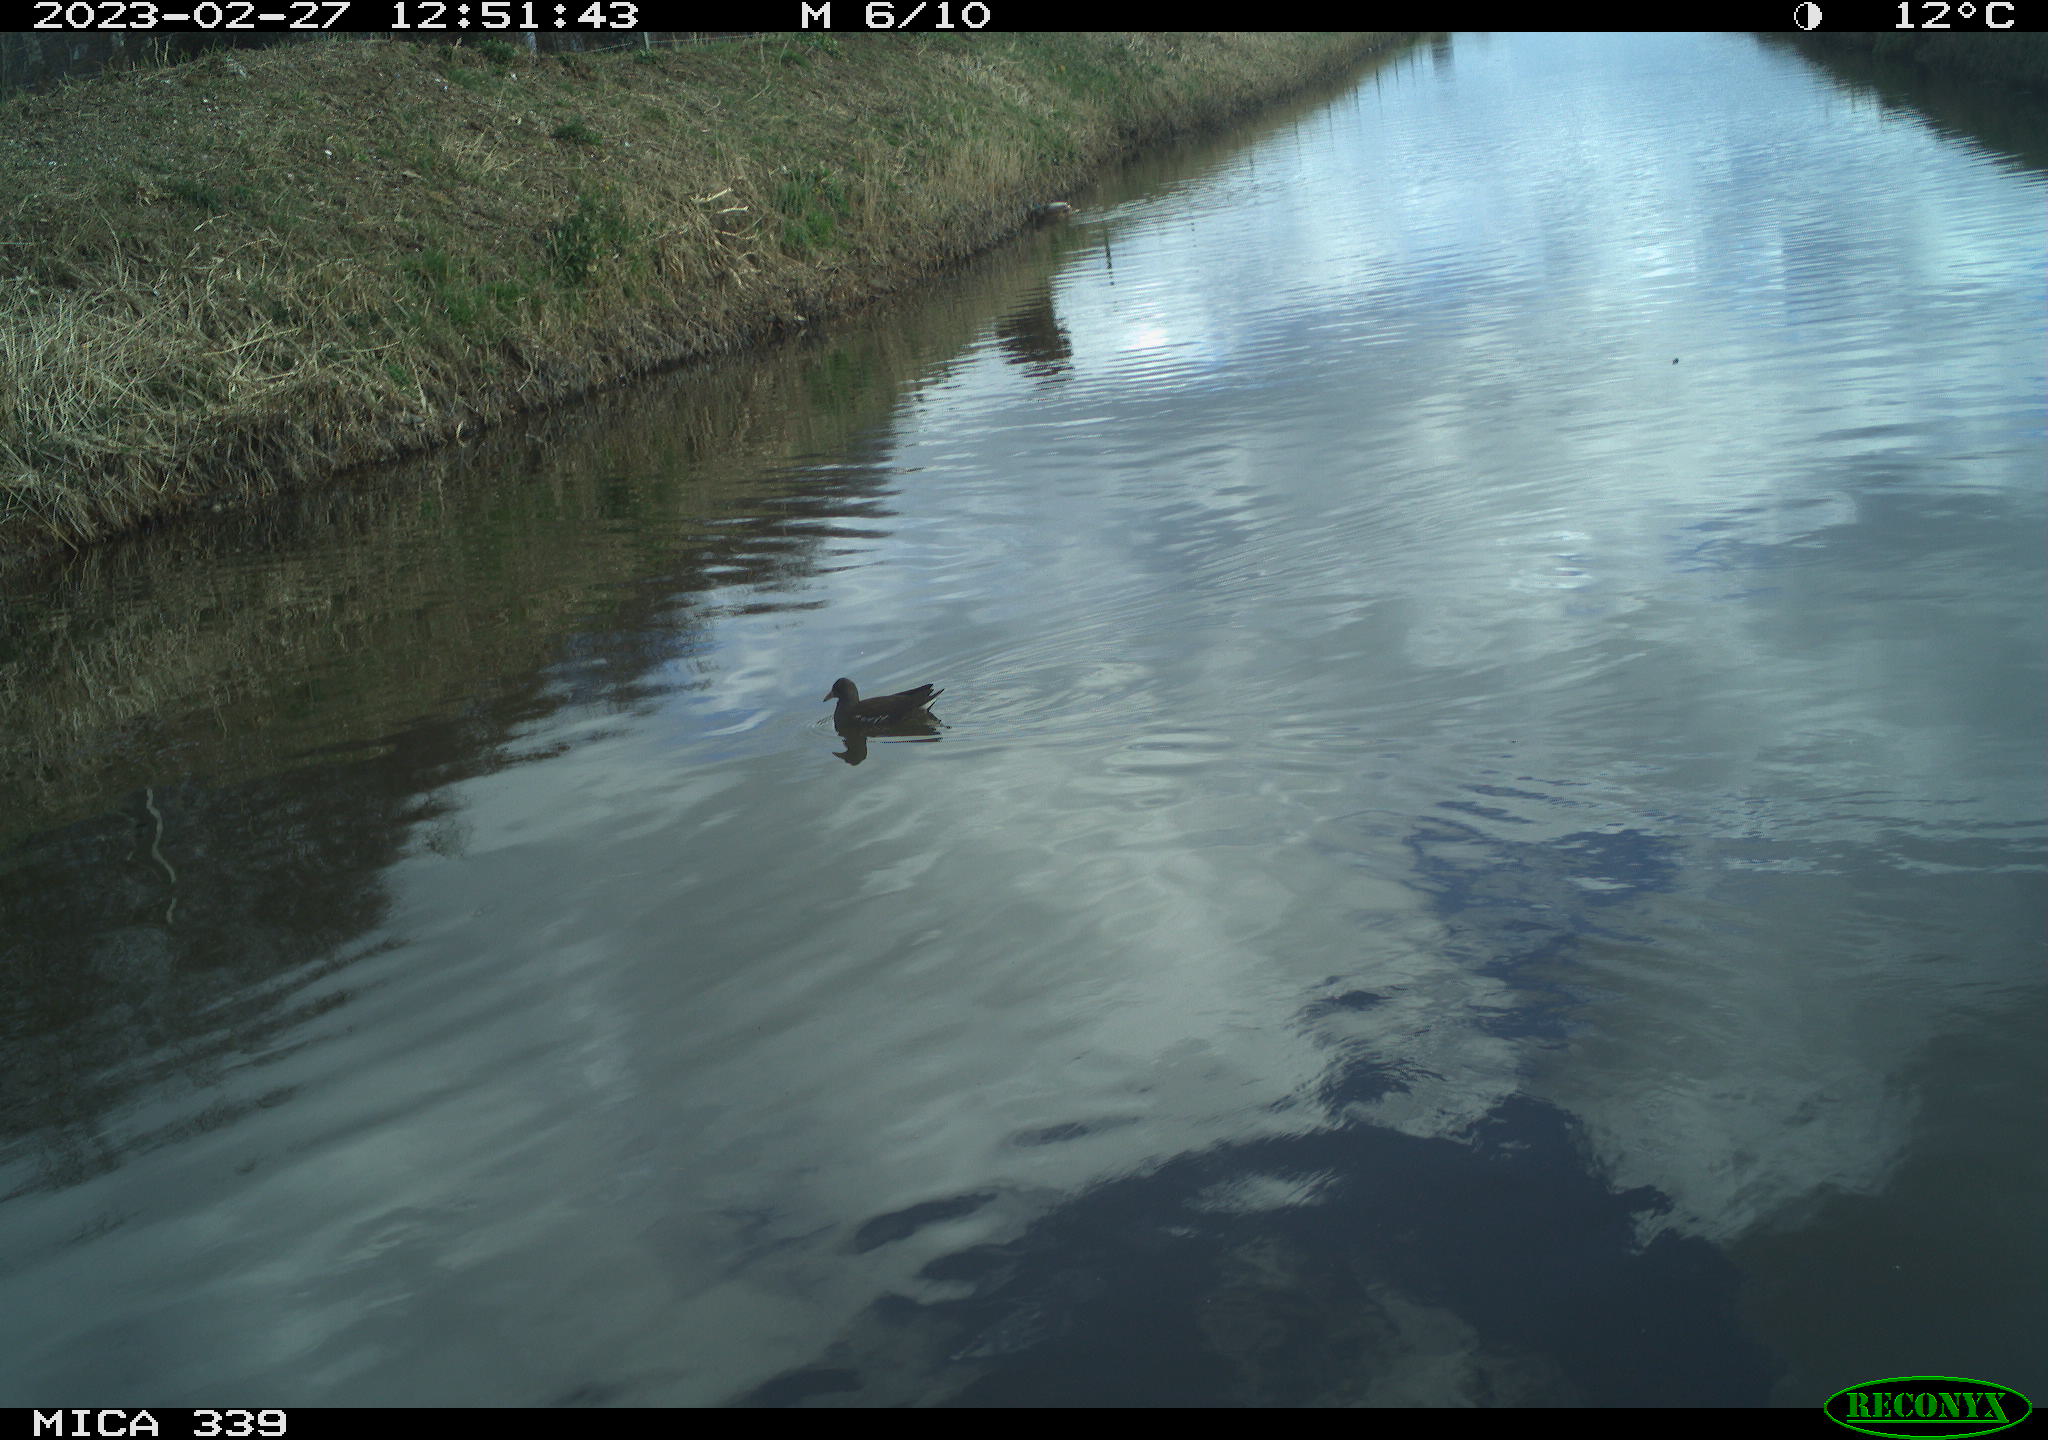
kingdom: Animalia
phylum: Chordata
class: Aves
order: Gruiformes
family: Rallidae
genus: Gallinula
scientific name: Gallinula chloropus
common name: Common moorhen
